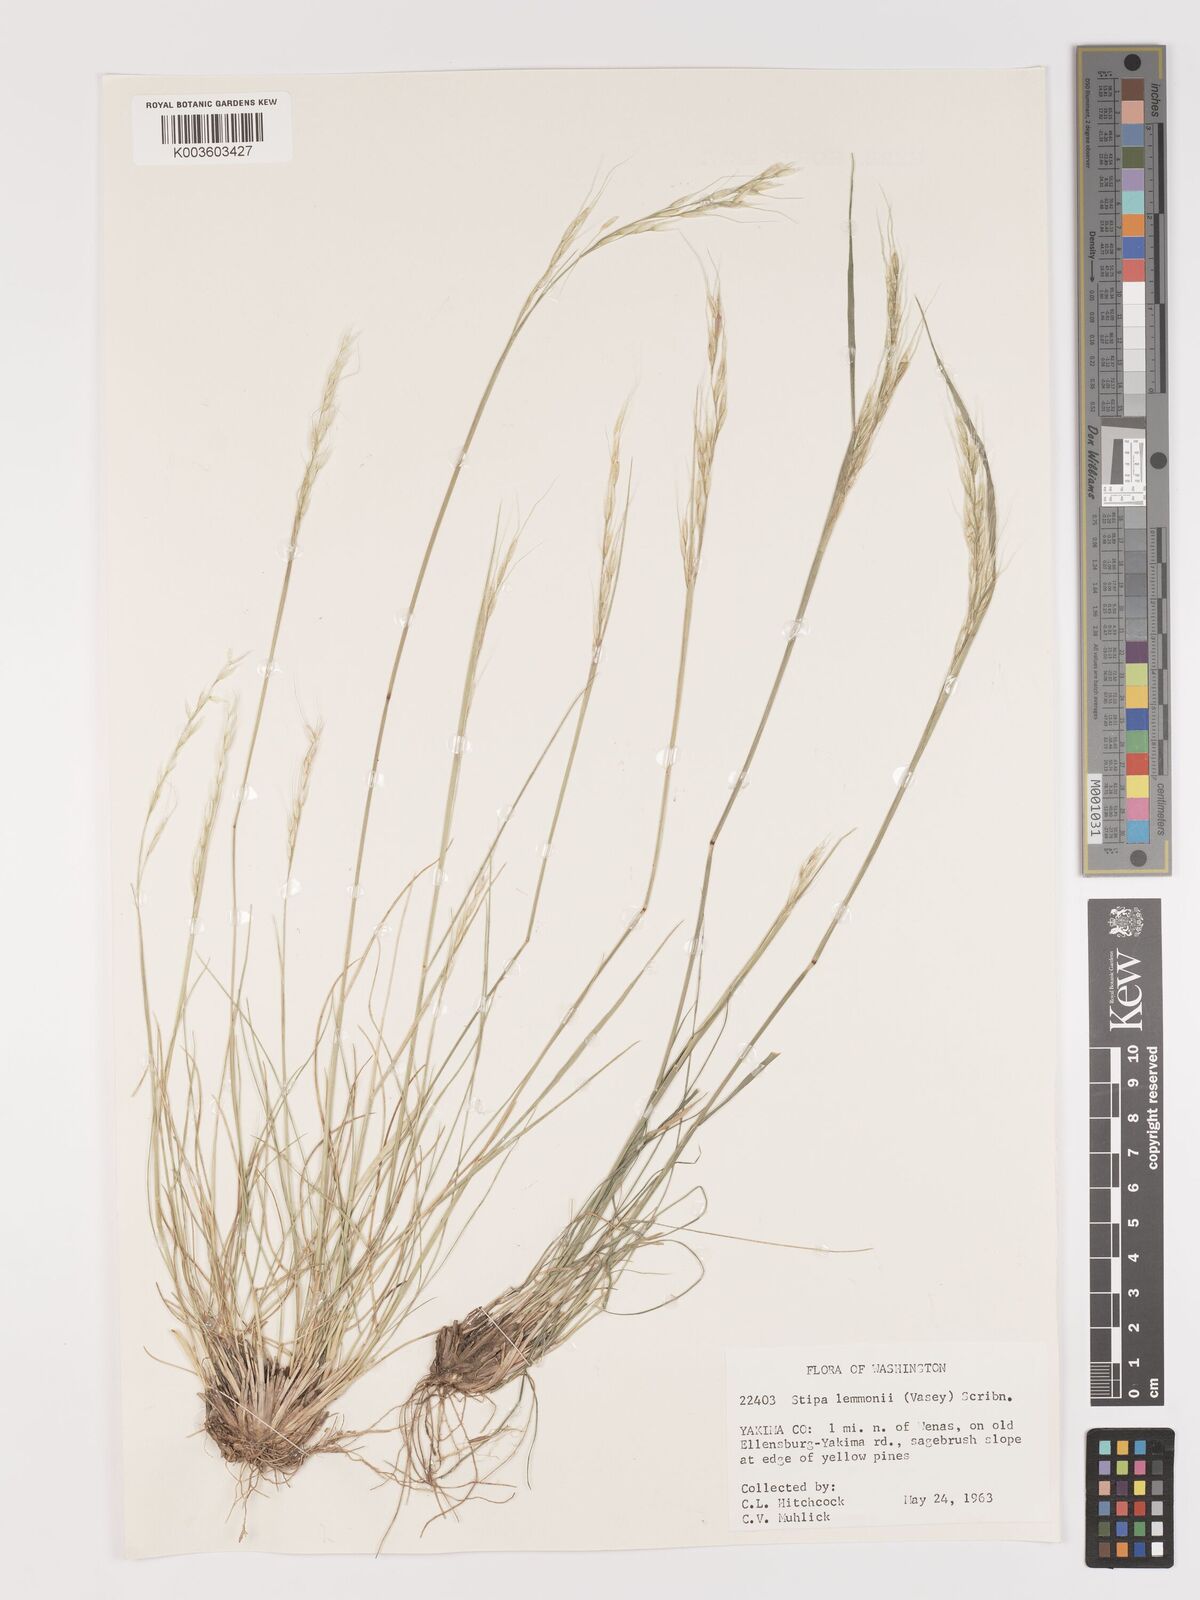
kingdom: Plantae
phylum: Tracheophyta
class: Liliopsida
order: Poales
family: Poaceae
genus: Eriocoma
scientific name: Eriocoma lemmonii
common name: Lemmon's needlegrass
